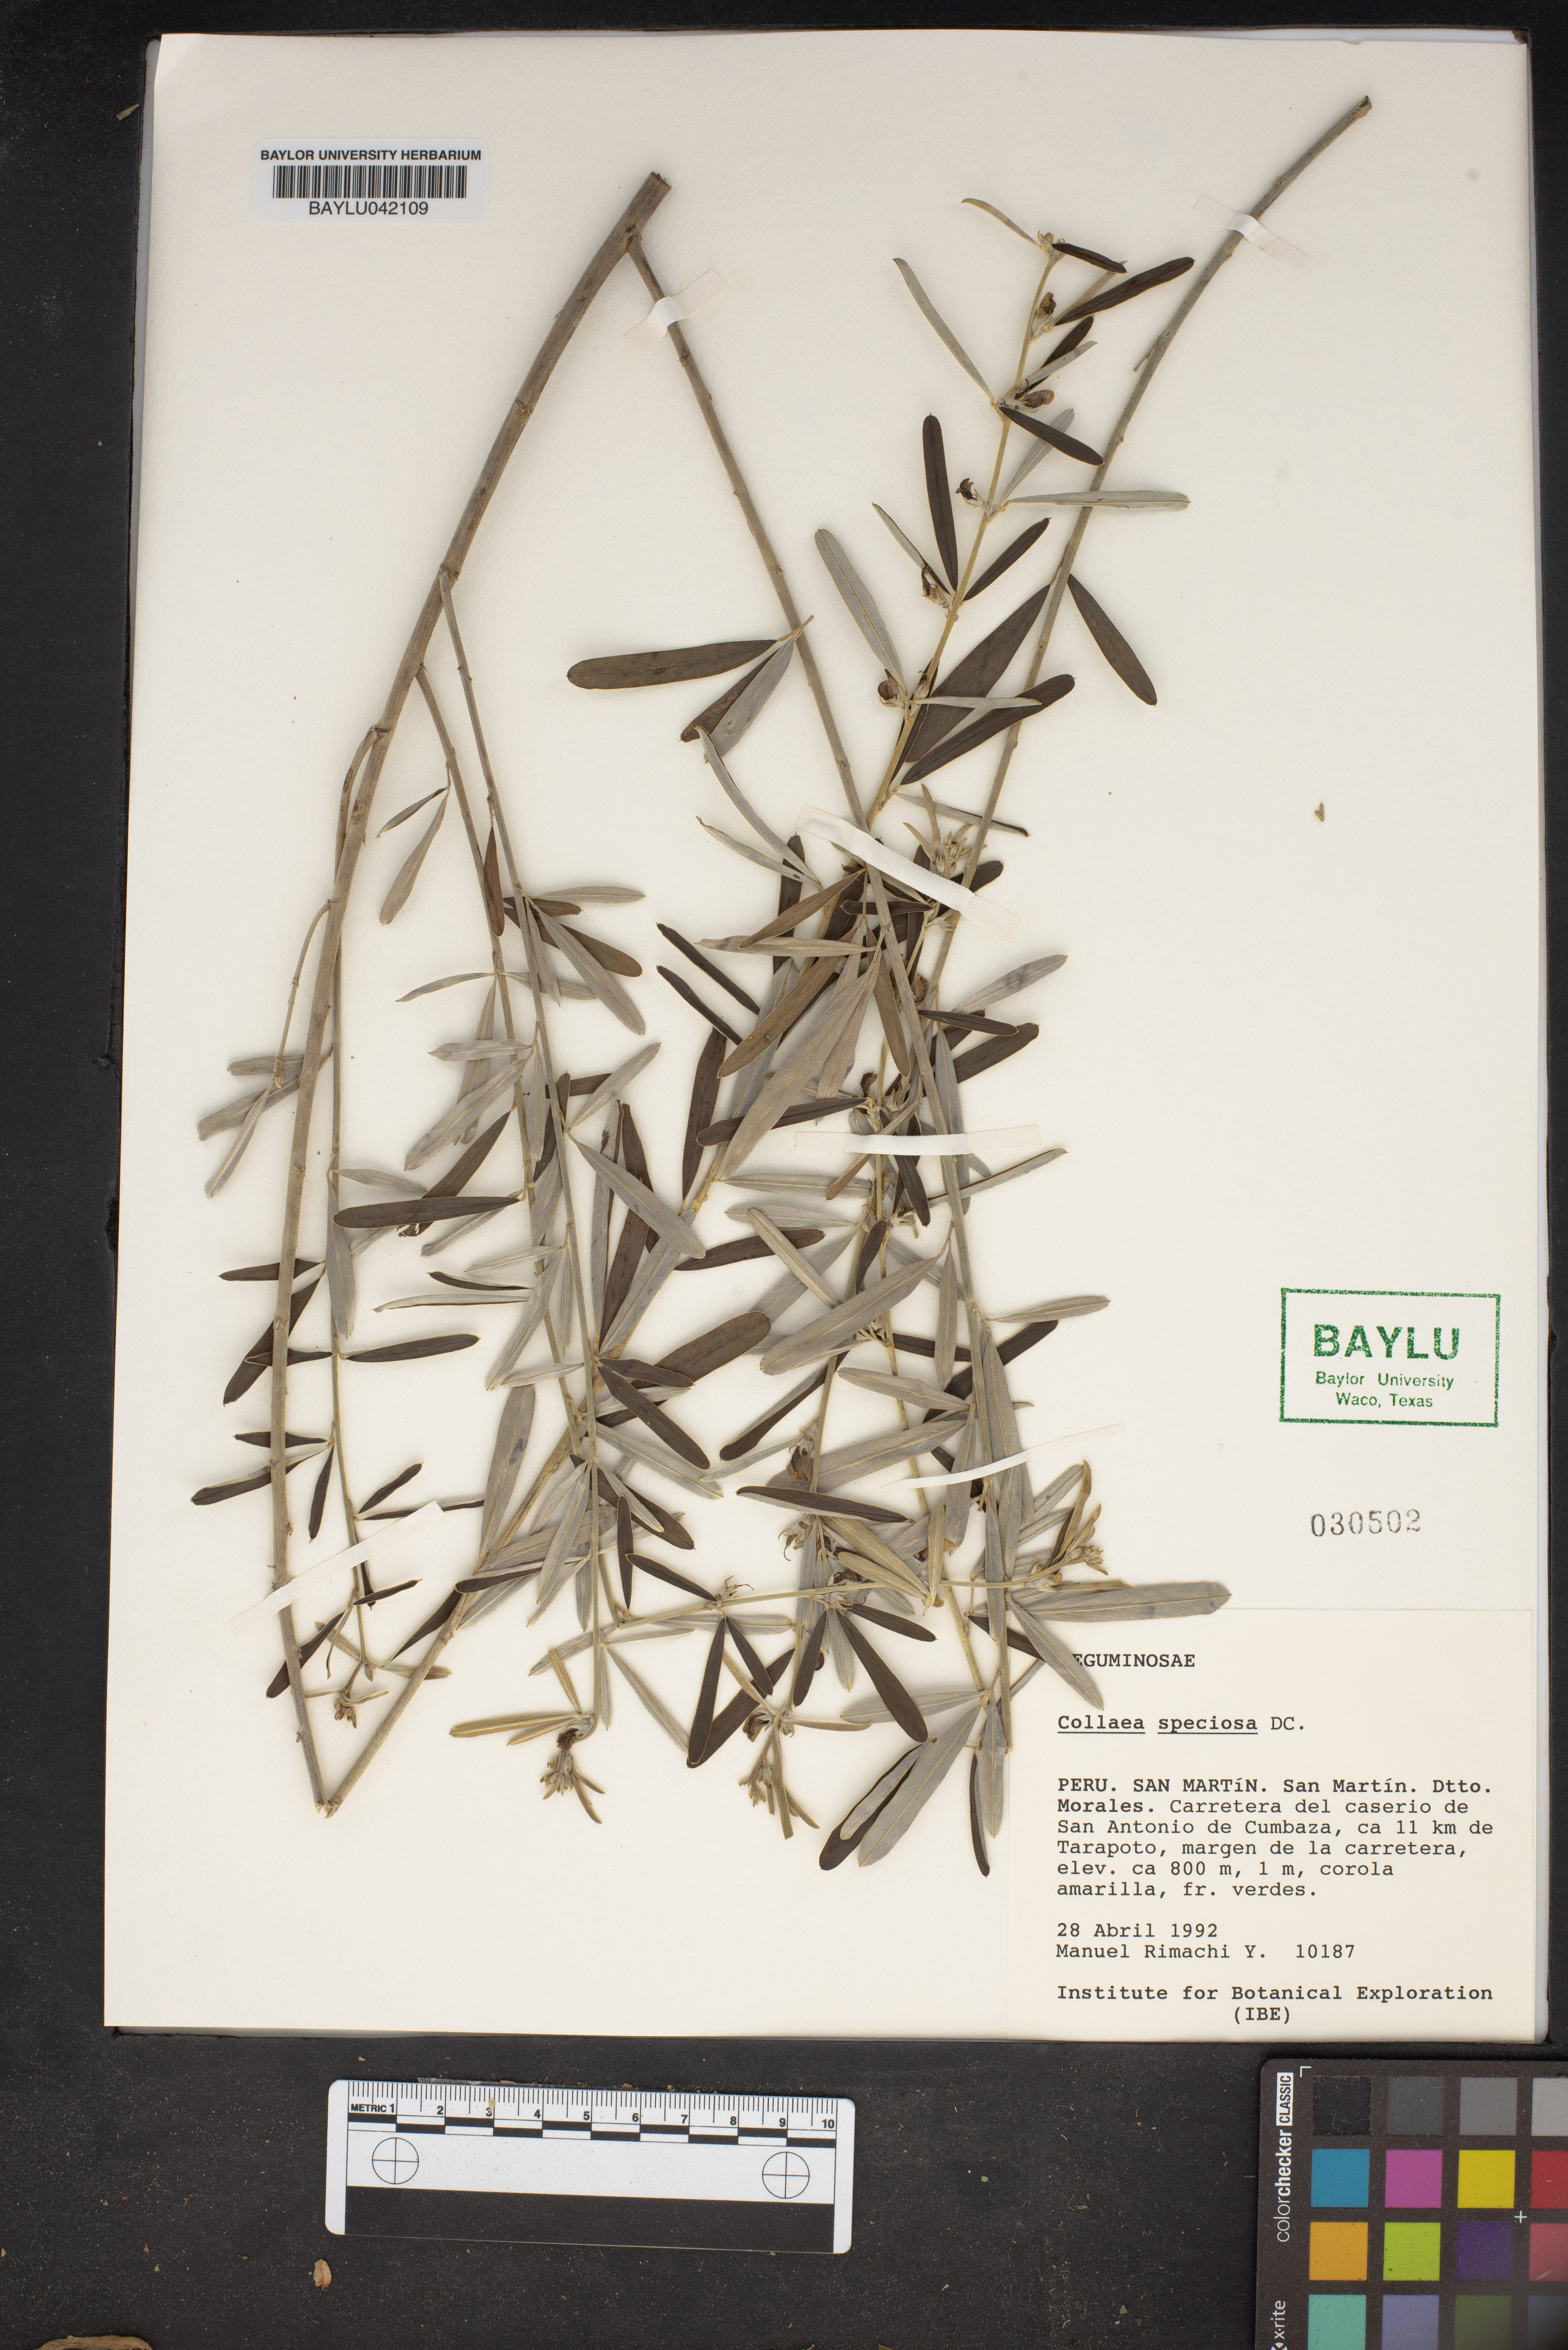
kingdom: Plantae
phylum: Tracheophyta
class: Magnoliopsida
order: Fabales
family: Fabaceae
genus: Collaea
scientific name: Collaea speciosa
